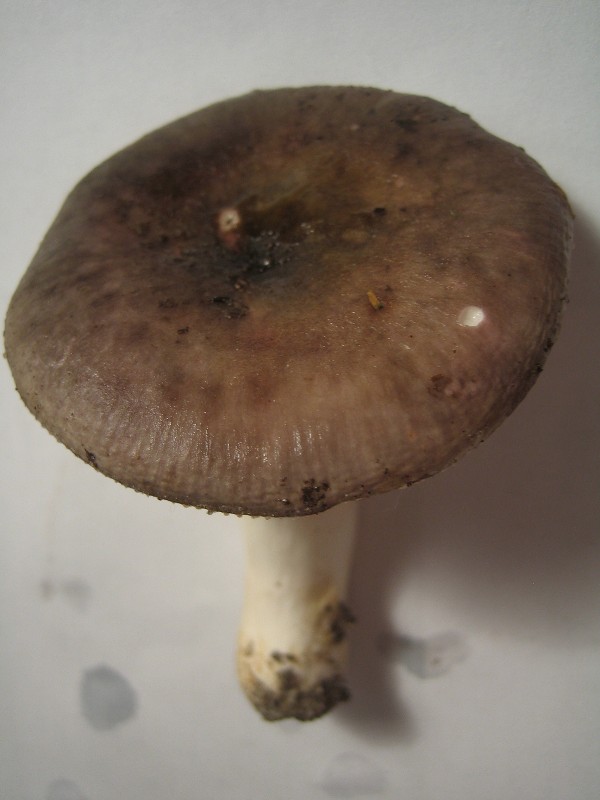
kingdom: Fungi
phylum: Basidiomycota
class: Agaricomycetes
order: Russulales
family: Russulaceae
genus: Russula
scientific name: Russula
